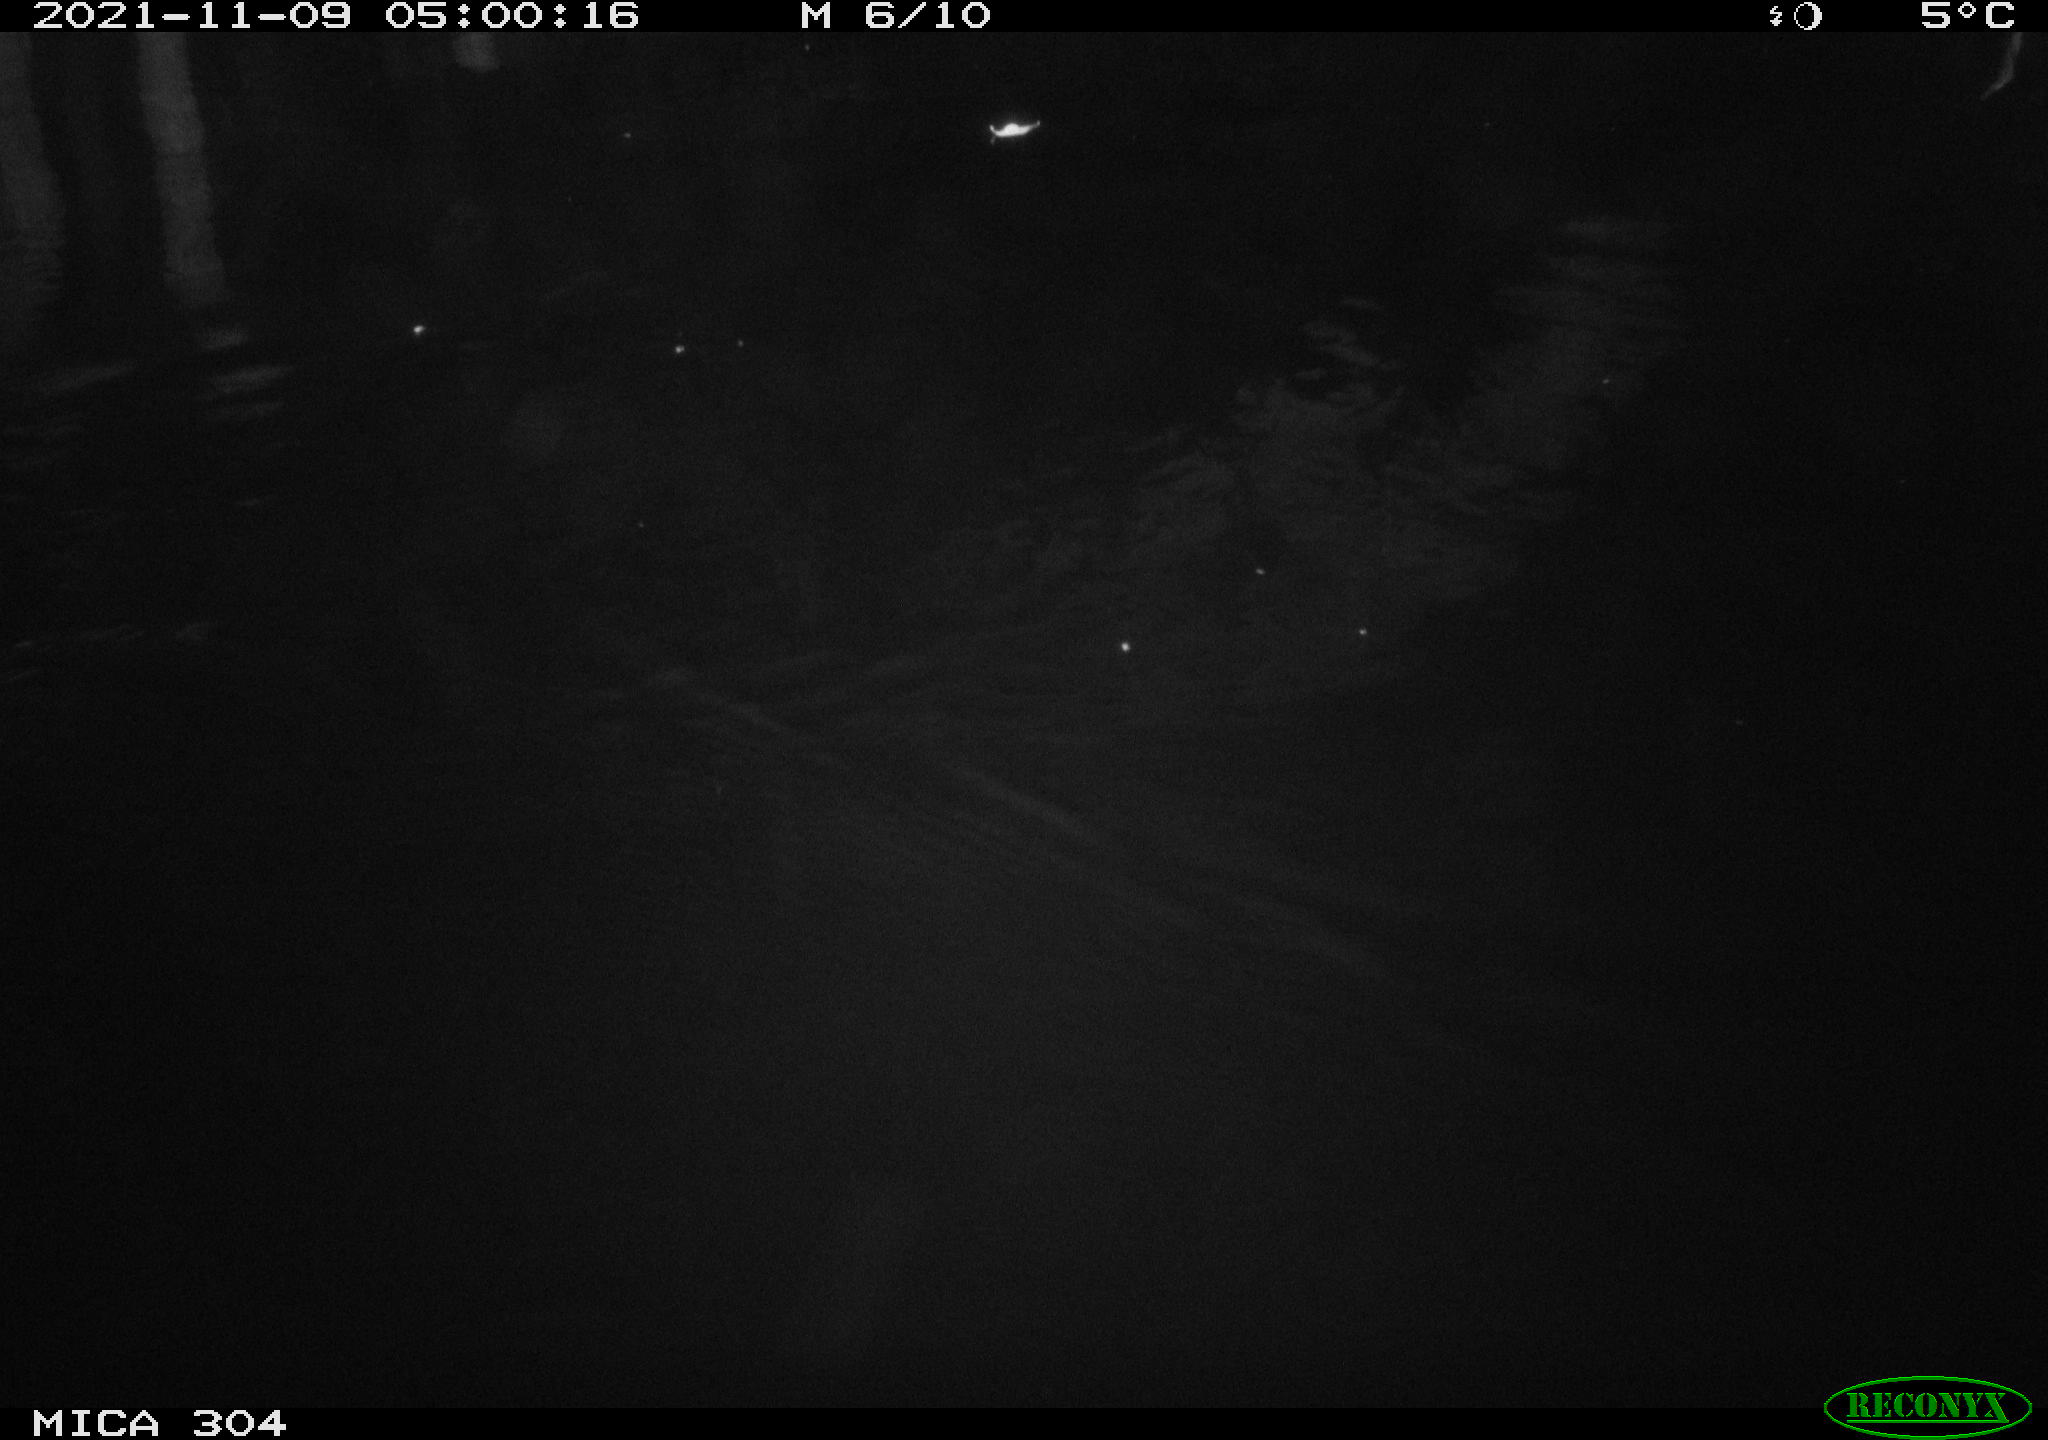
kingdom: Animalia
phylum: Chordata
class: Mammalia
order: Rodentia
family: Muridae
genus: Rattus
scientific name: Rattus norvegicus
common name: Brown rat
